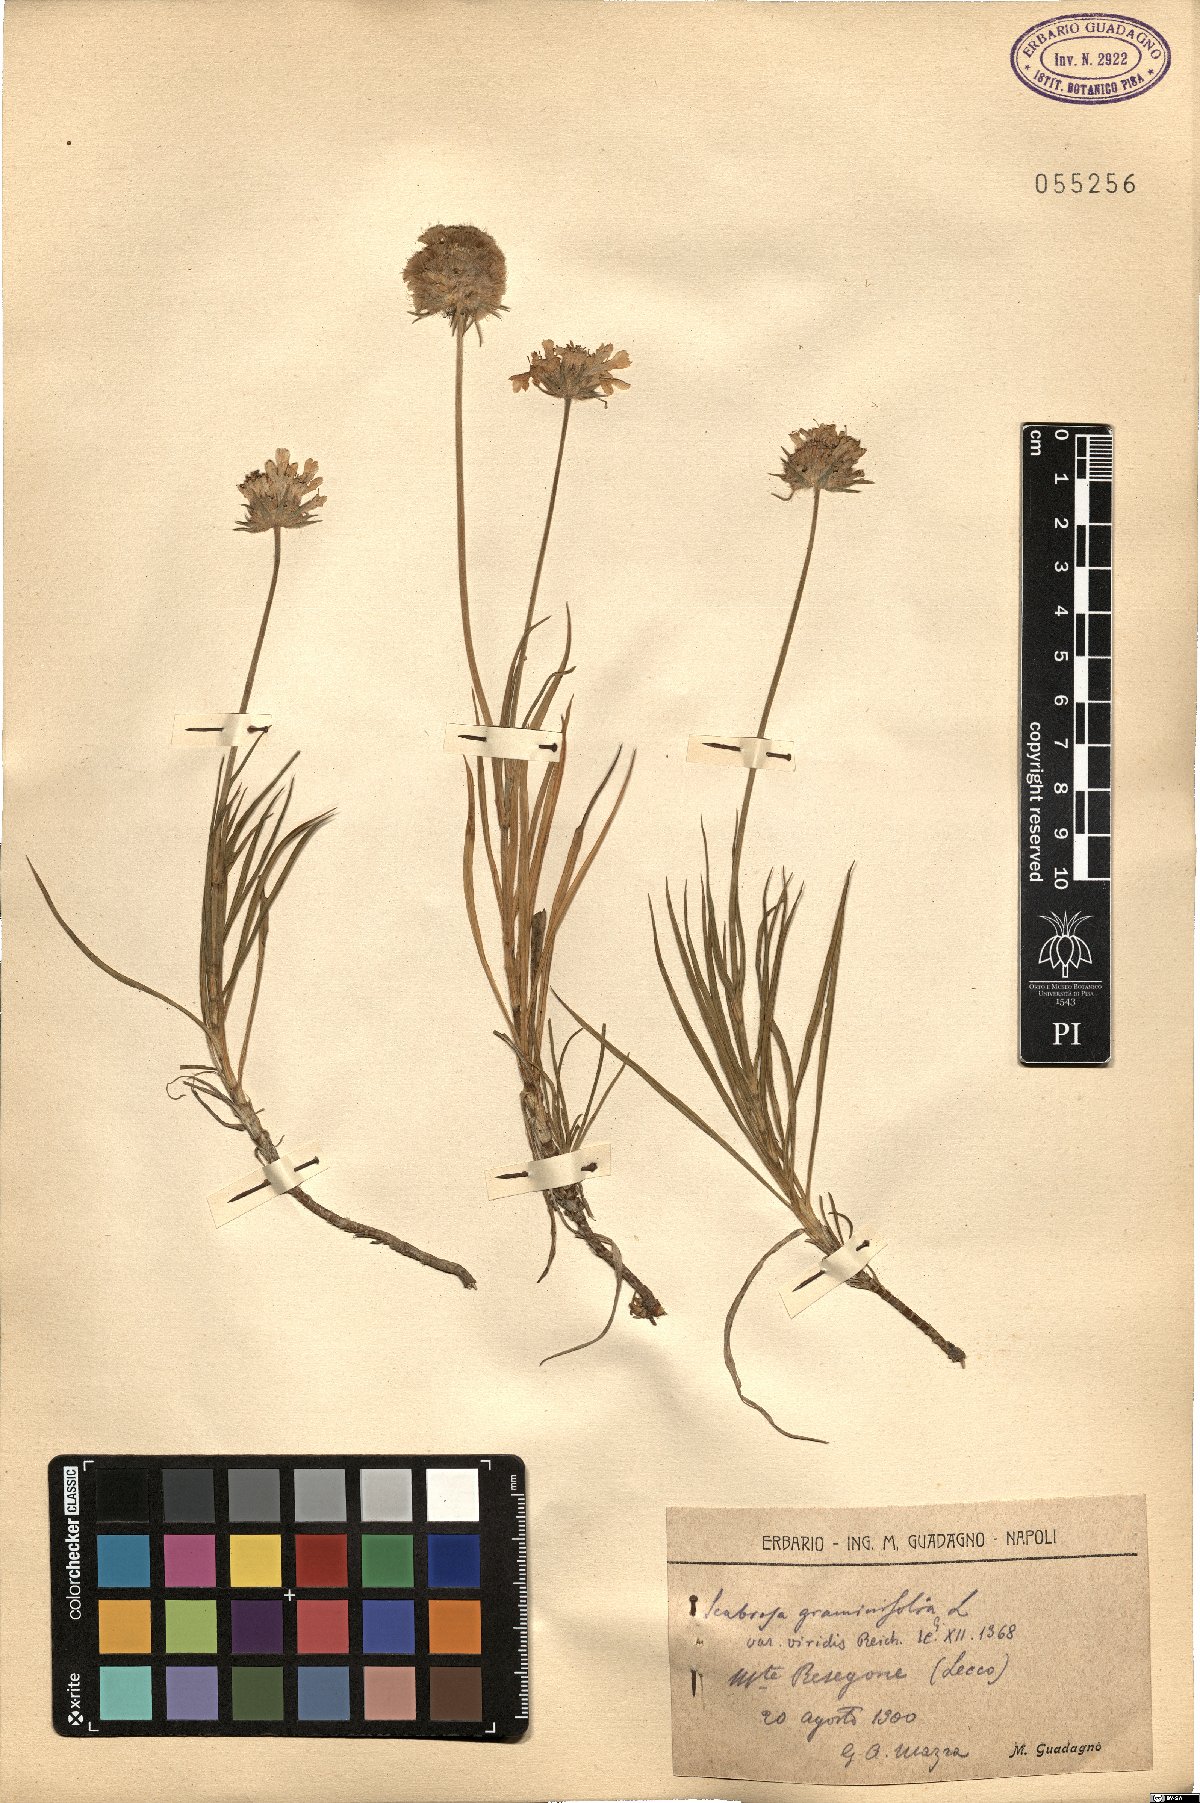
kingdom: Plantae
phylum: Tracheophyta
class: Magnoliopsida
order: Dipsacales
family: Caprifoliaceae
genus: Lomelosia
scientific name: Lomelosia graminifolia
